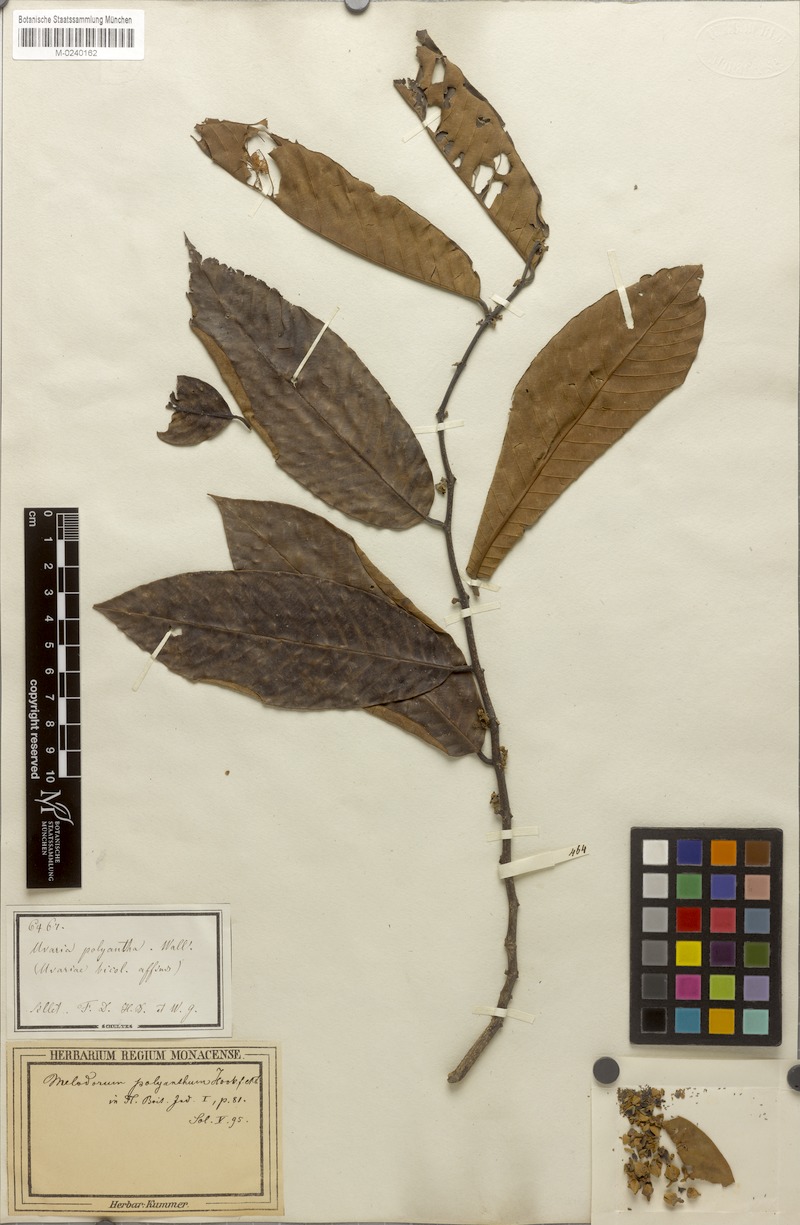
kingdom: Plantae
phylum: Tracheophyta
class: Magnoliopsida
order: Magnoliales
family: Annonaceae
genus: Fissistigma
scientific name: Fissistigma polyanthum
